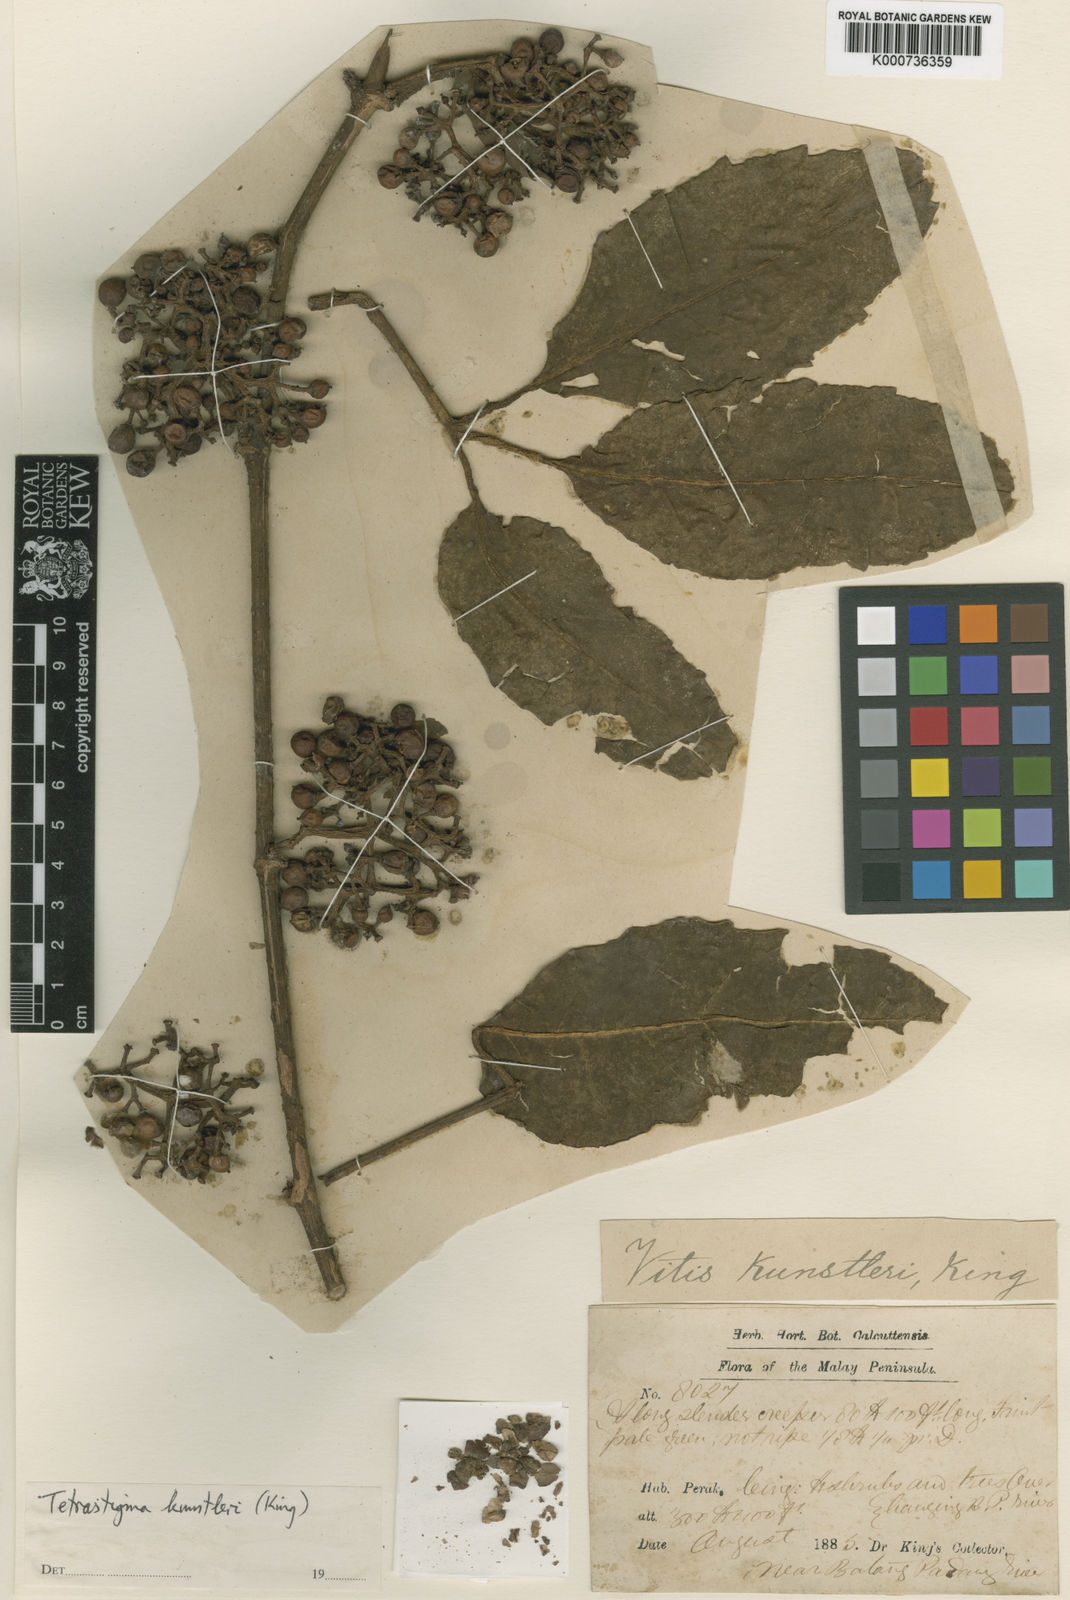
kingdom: Plantae
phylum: Tracheophyta
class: Magnoliopsida
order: Vitales
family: Vitaceae
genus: Tetrastigma
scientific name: Tetrastigma leucostaphylum
